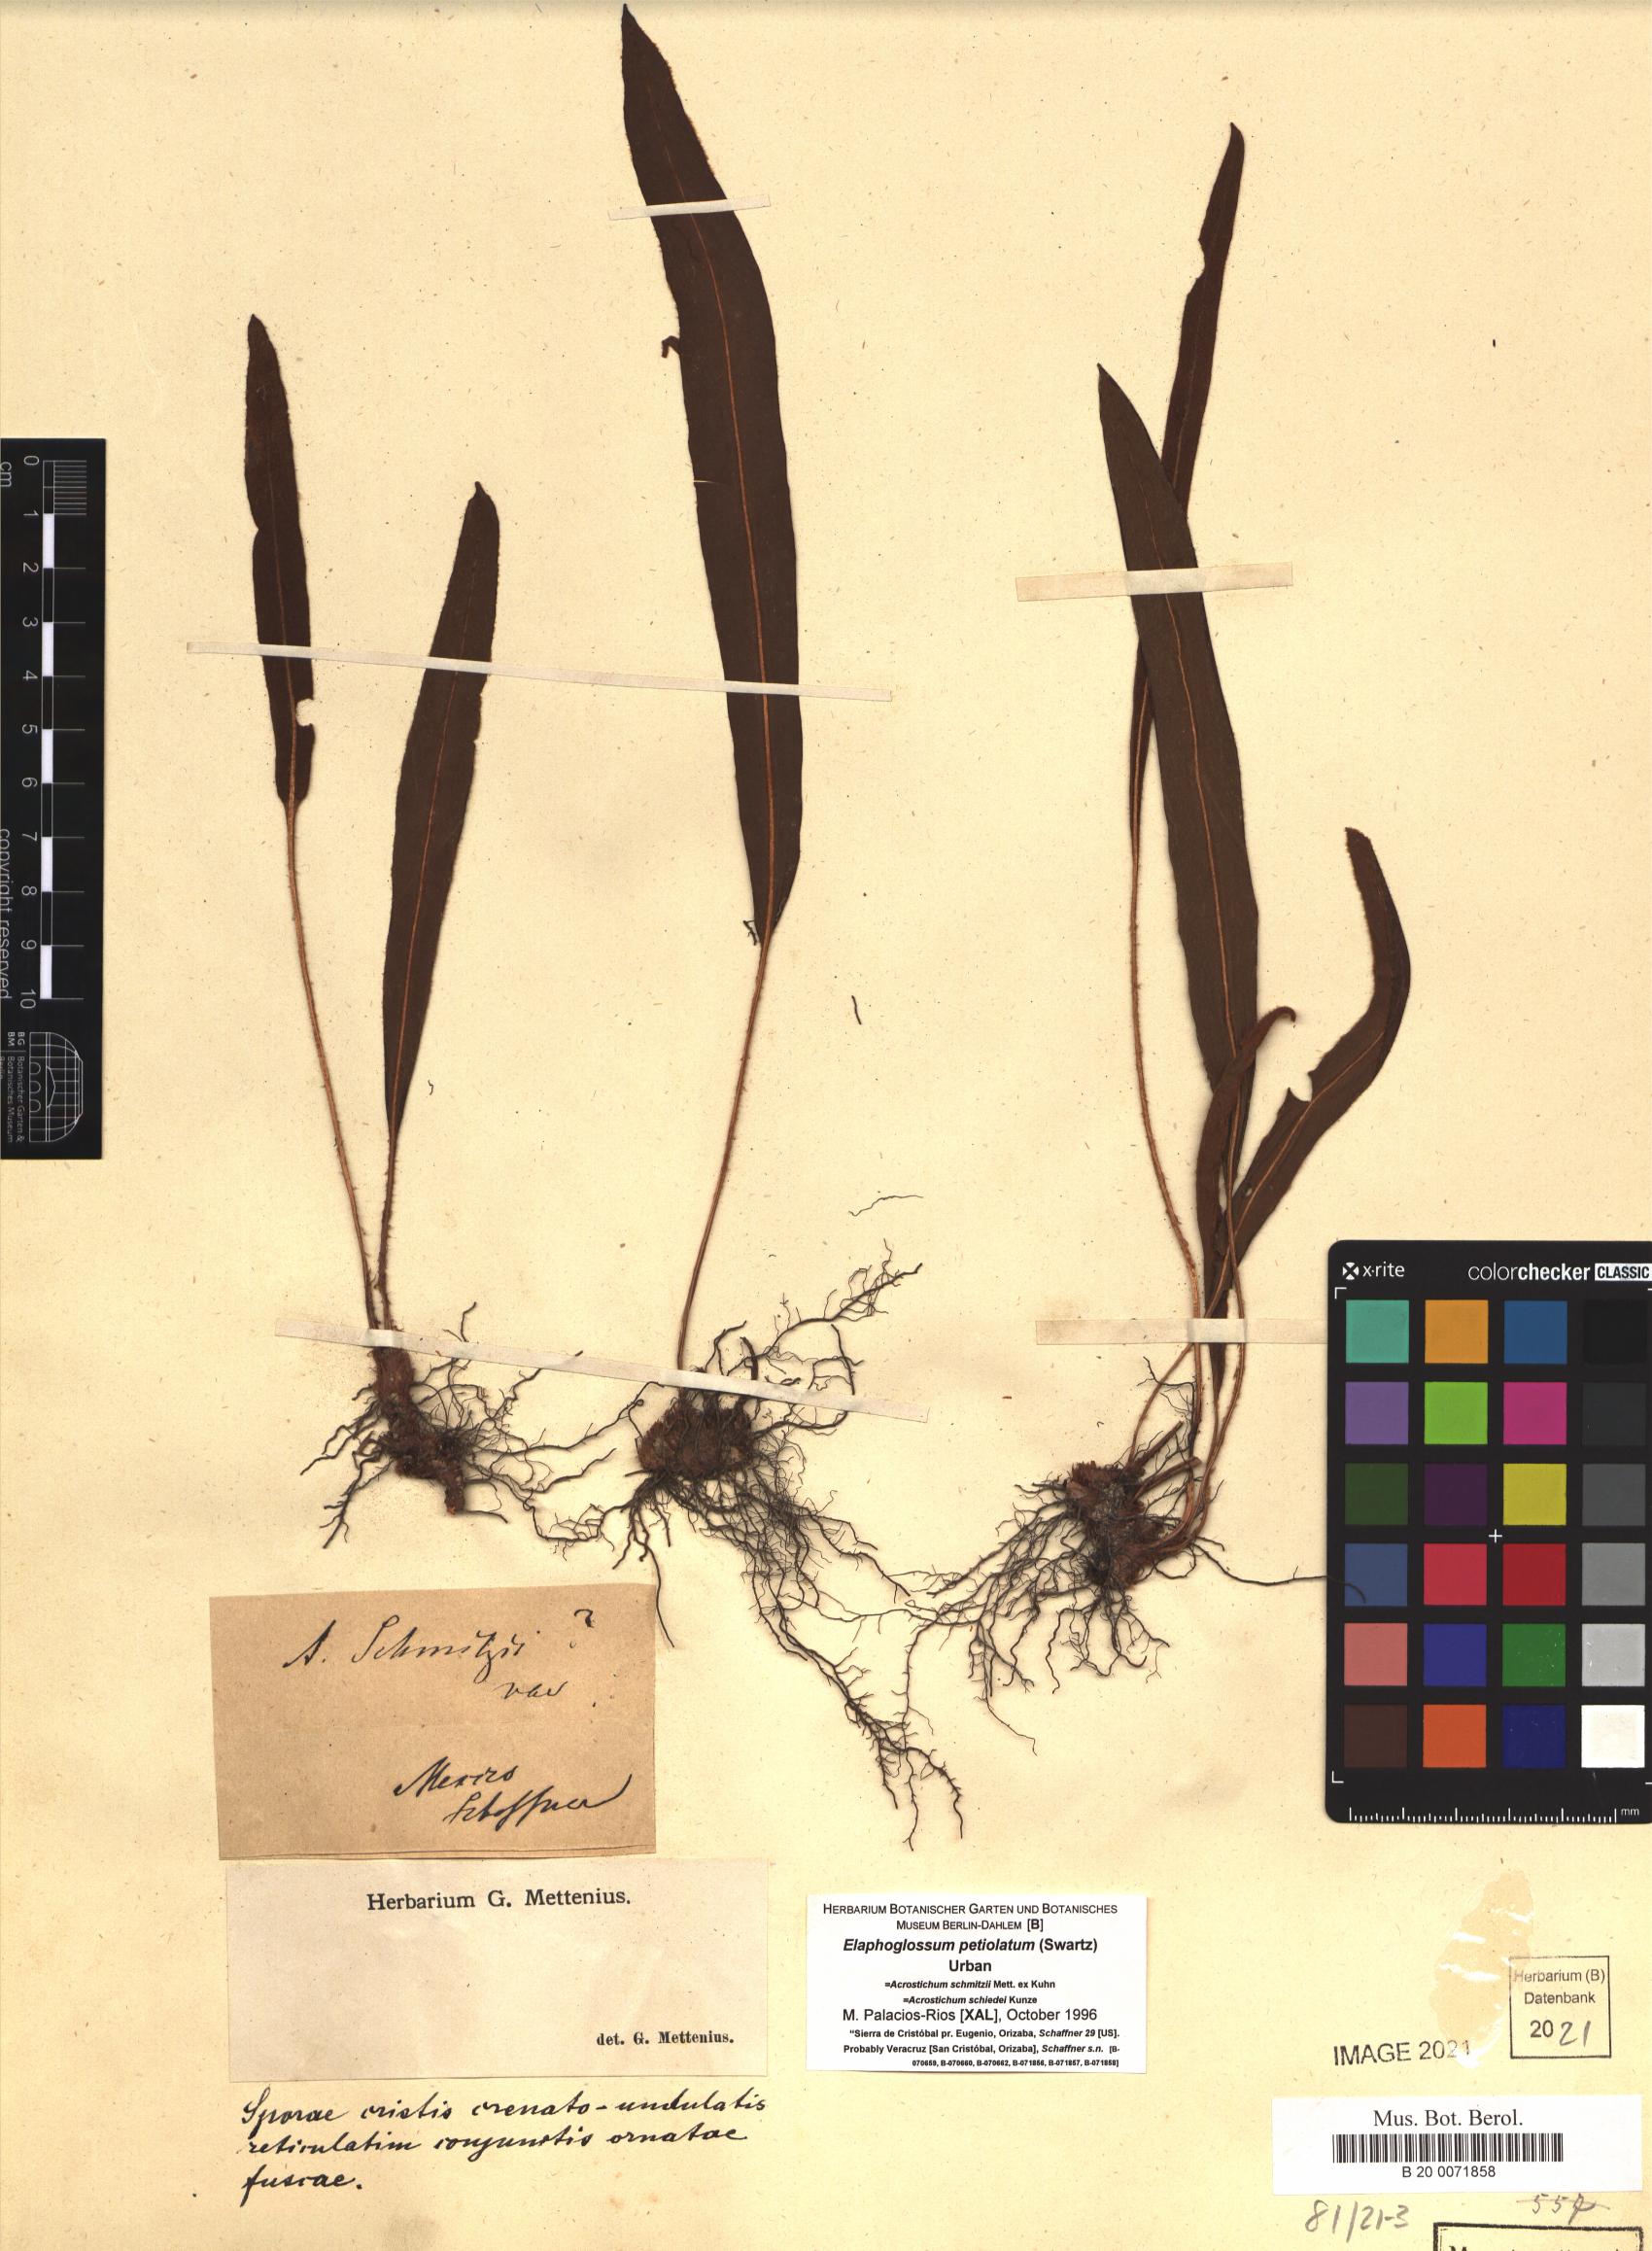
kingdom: Plantae
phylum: Tracheophyta
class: Polypodiopsida
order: Polypodiales
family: Dryopteridaceae
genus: Elaphoglossum
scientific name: Elaphoglossum petiolatum
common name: Graceful tonguefern
